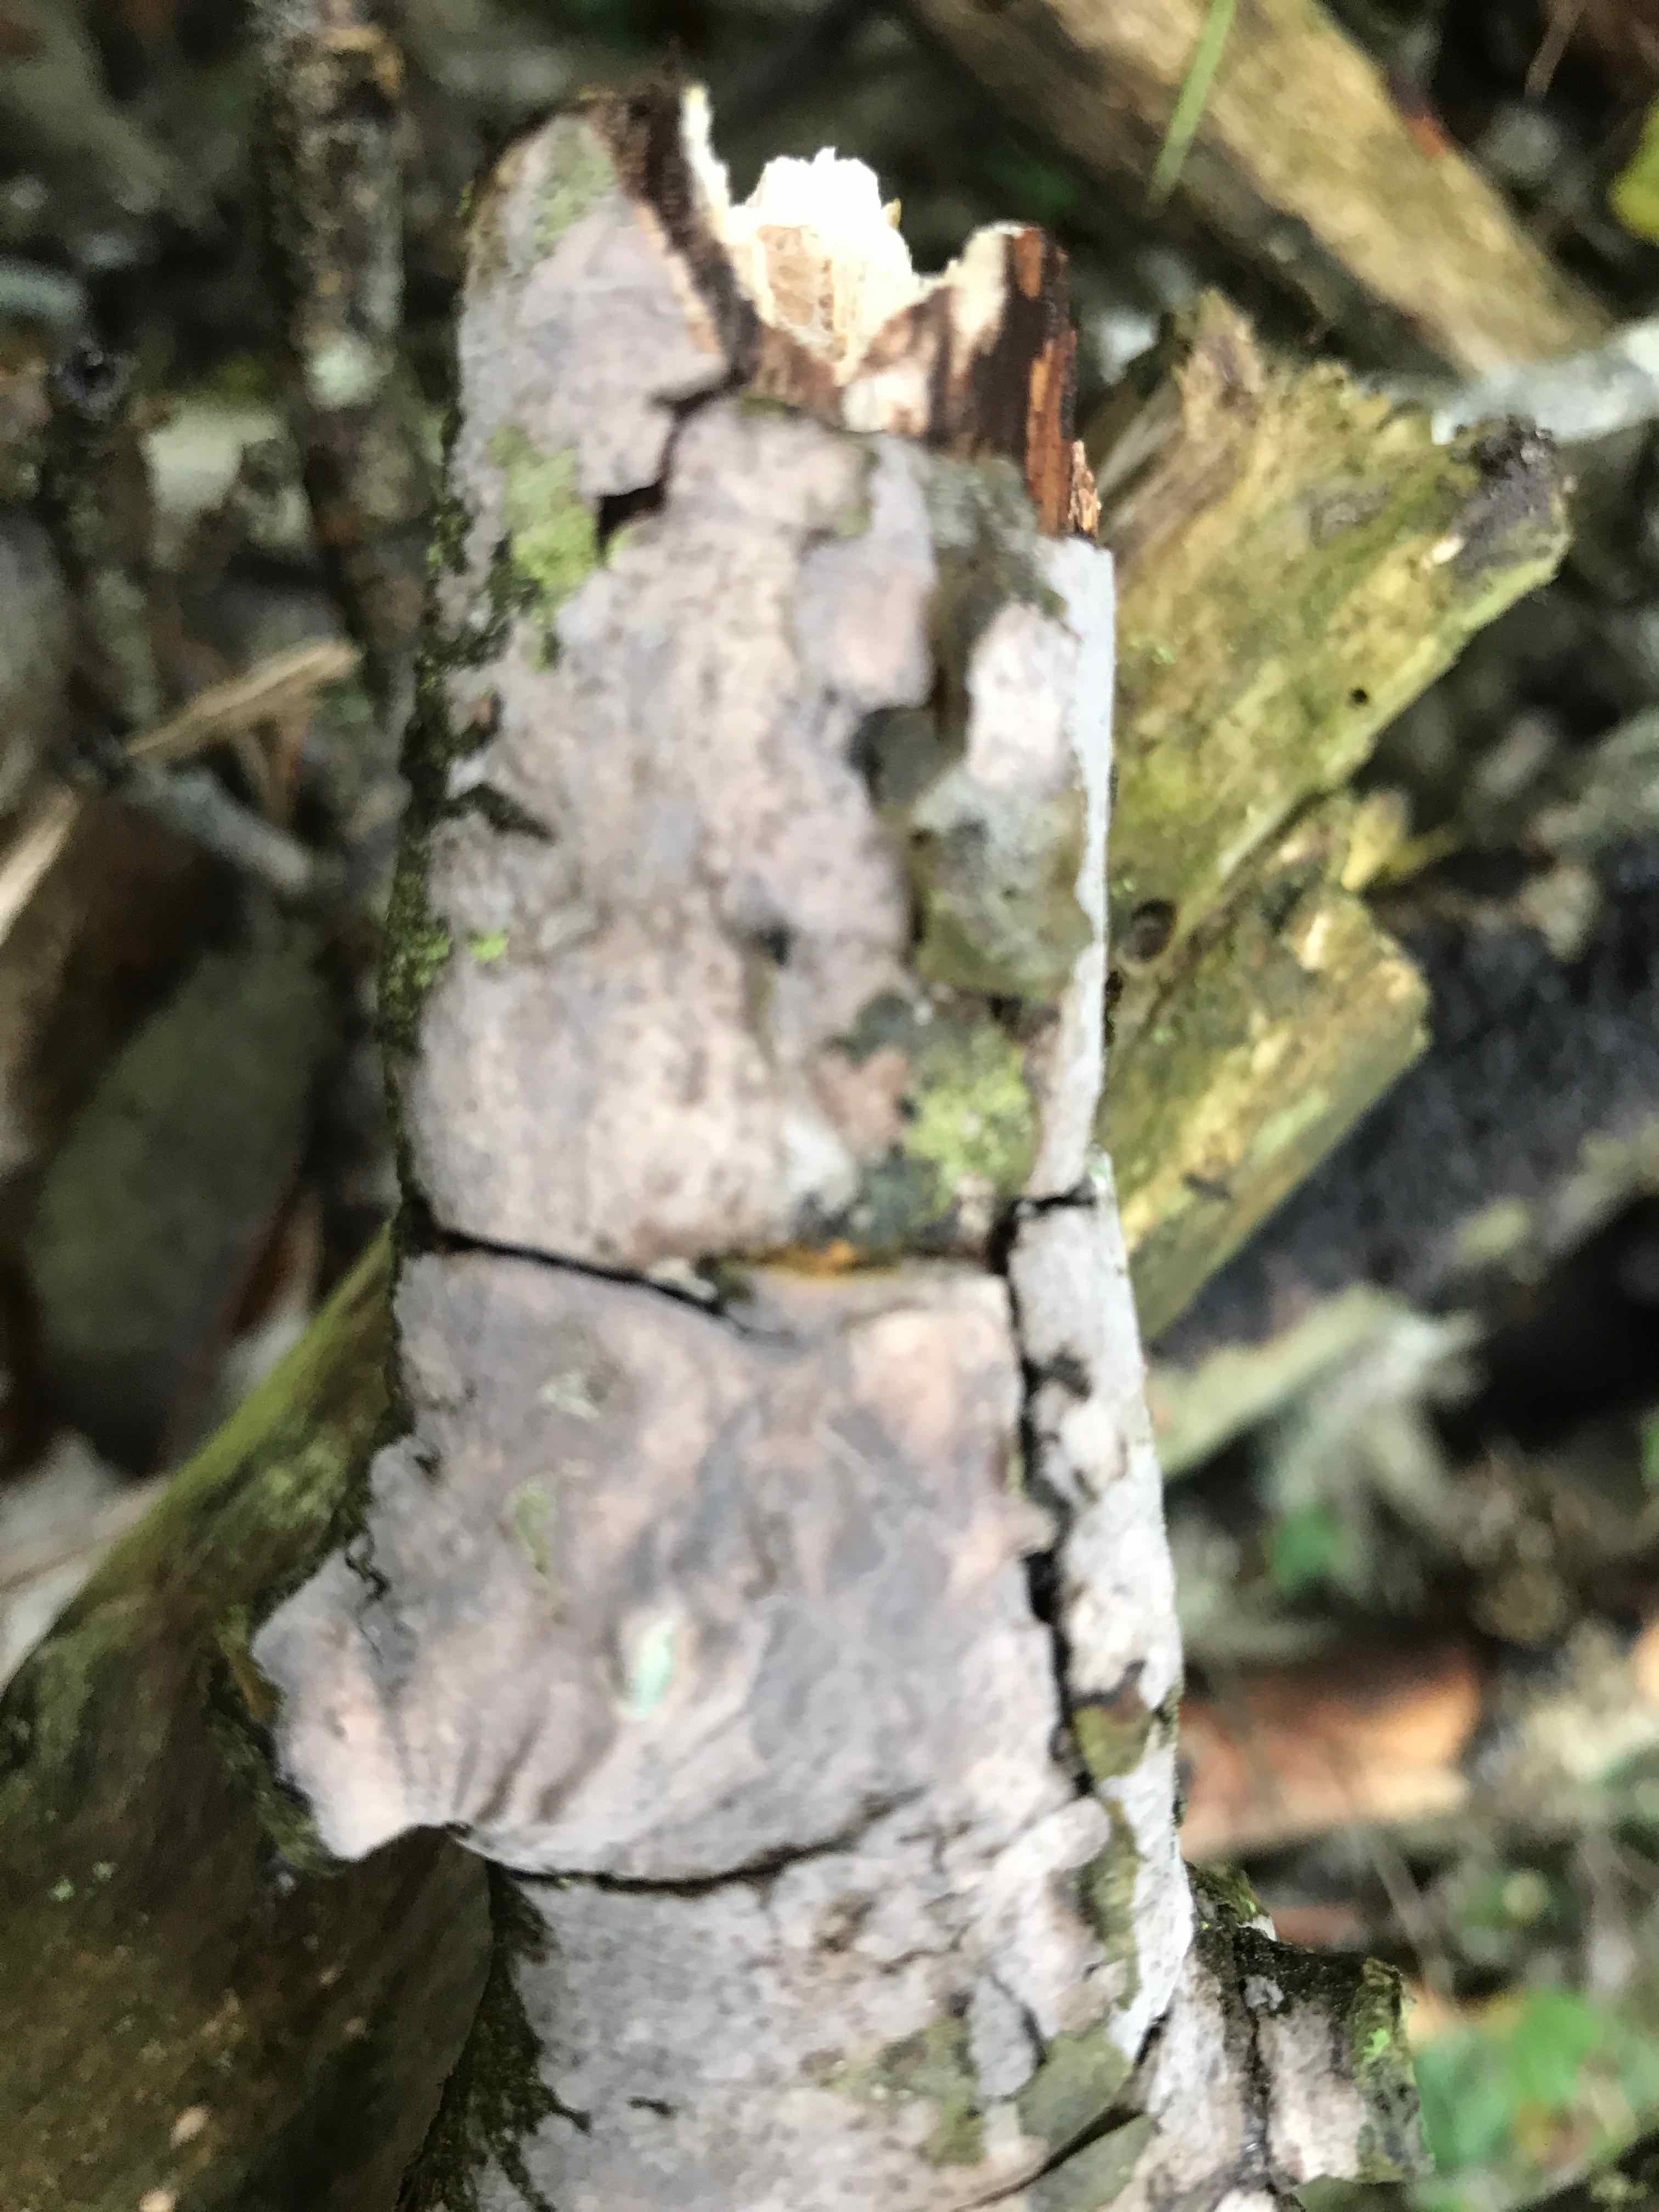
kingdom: Fungi
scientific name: Fungi
